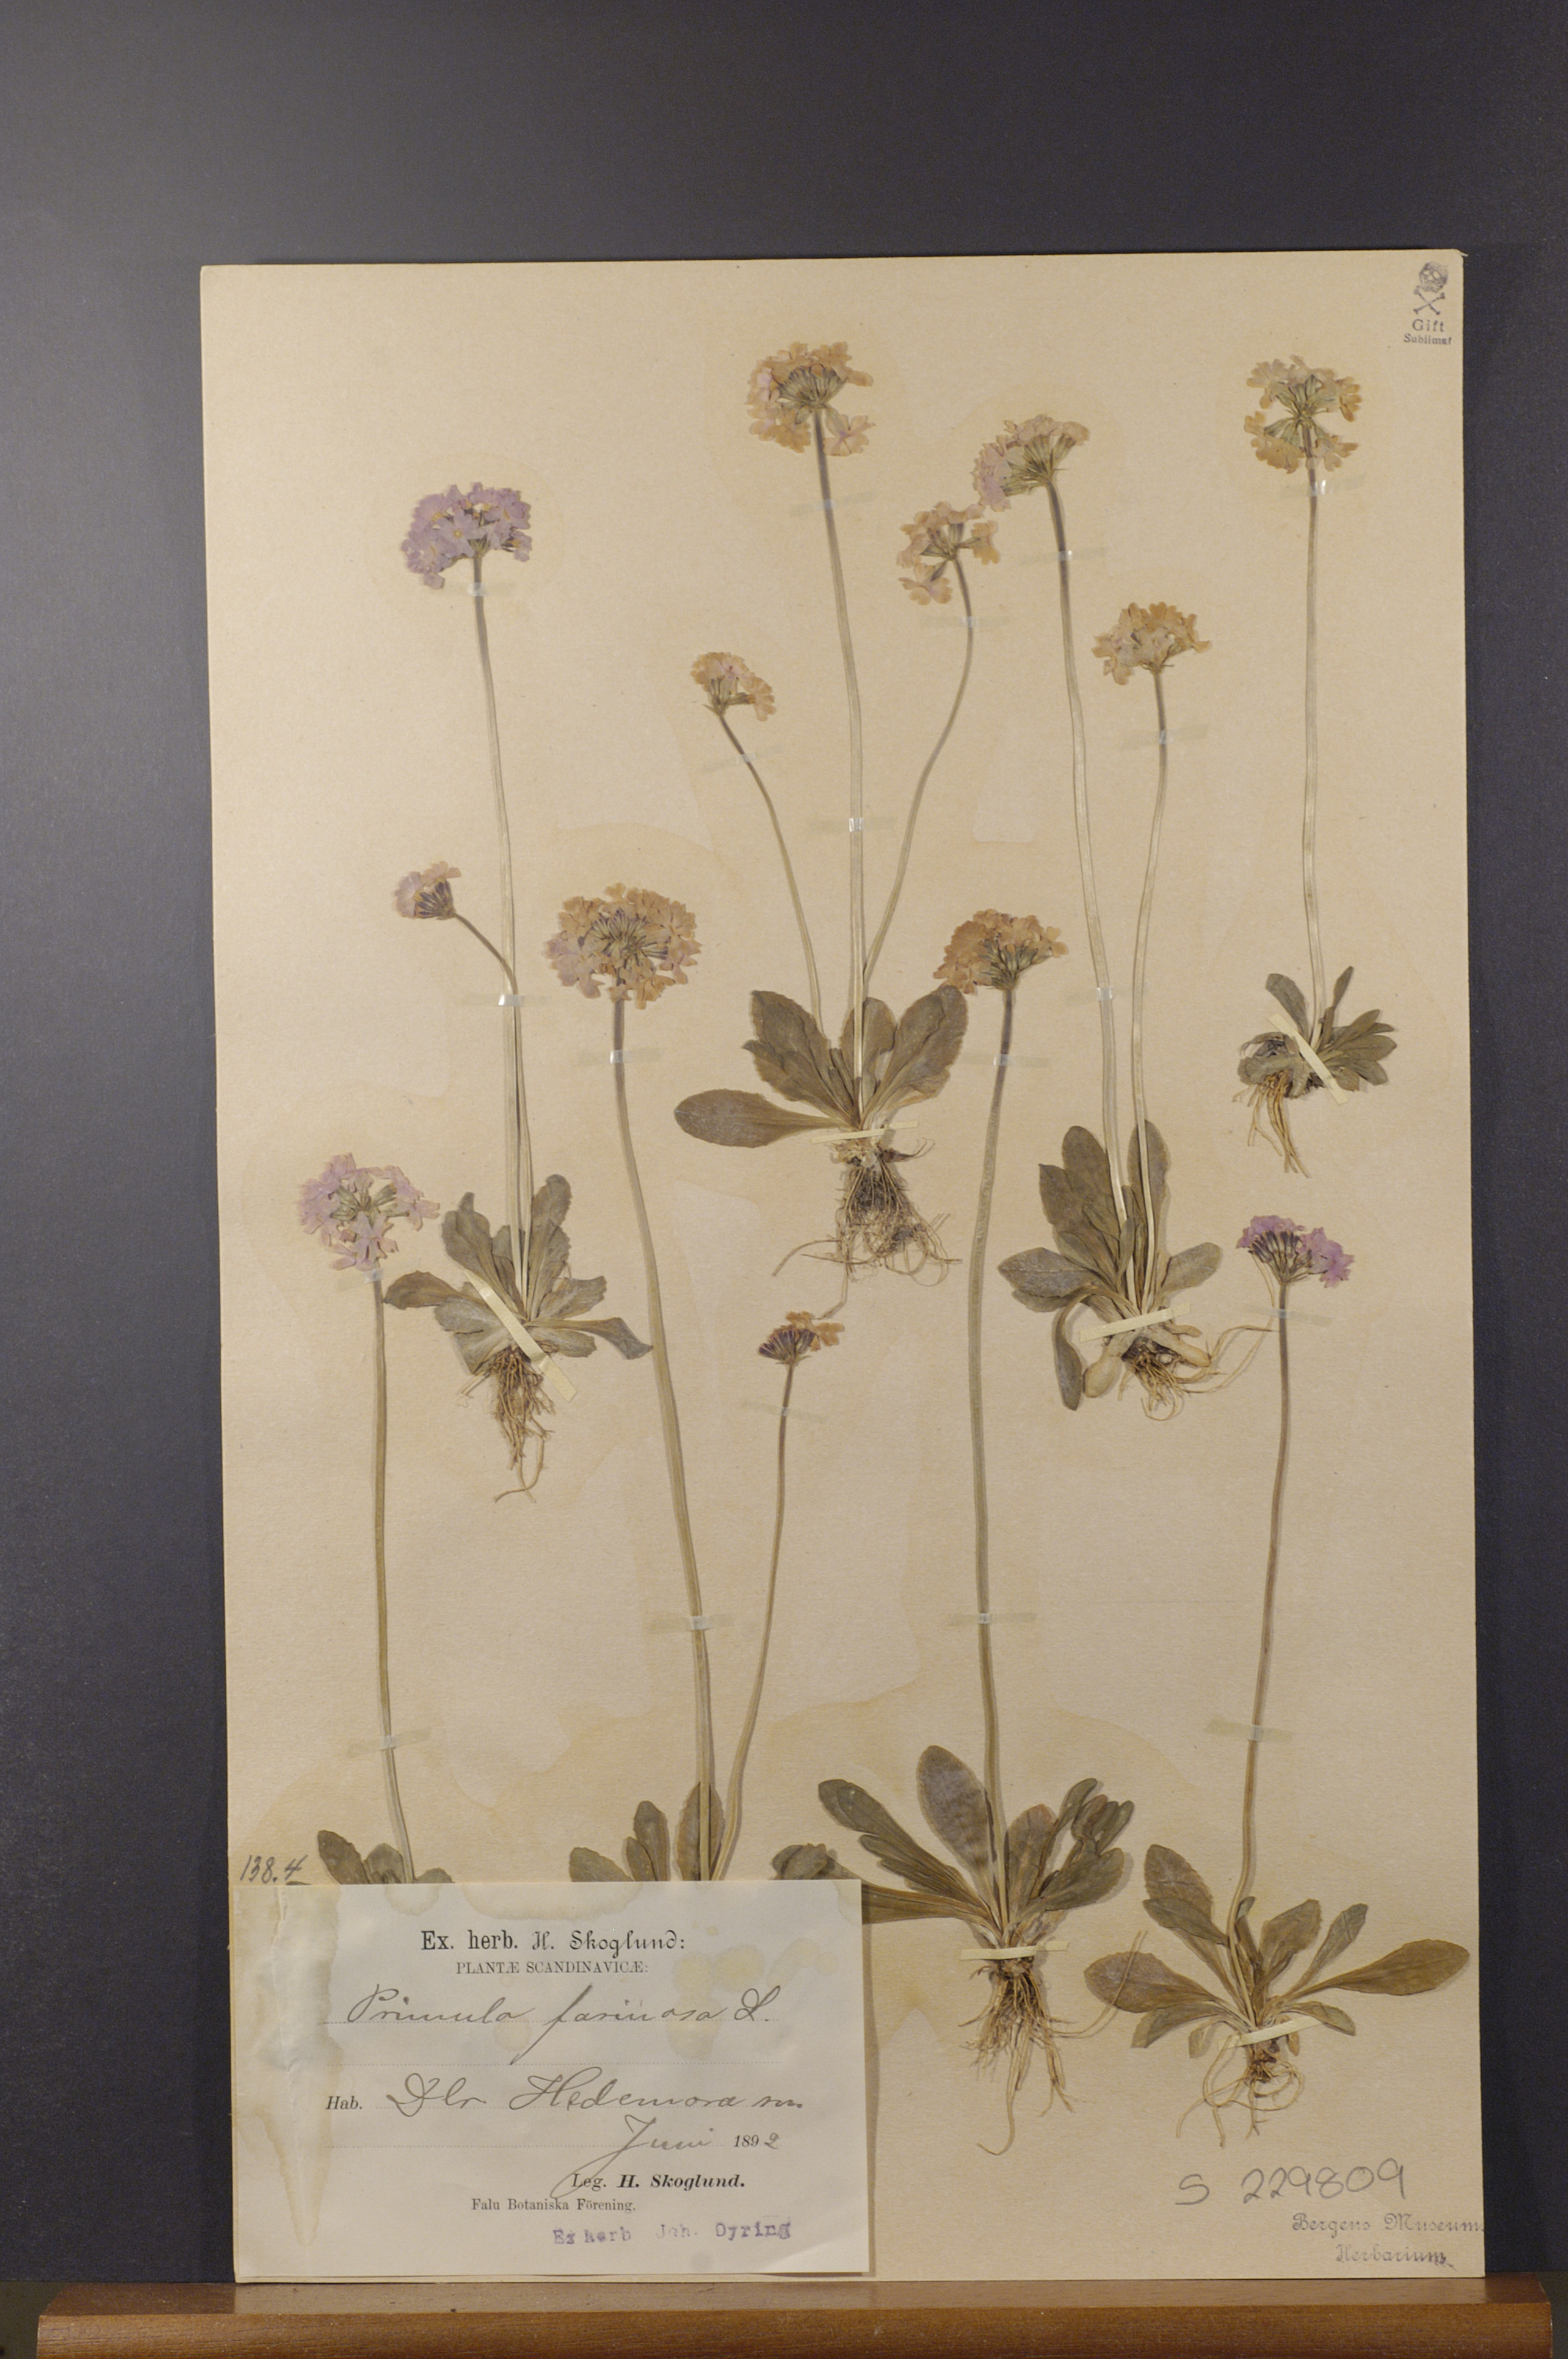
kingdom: Plantae
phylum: Tracheophyta
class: Magnoliopsida
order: Ericales
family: Primulaceae
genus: Primula
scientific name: Primula farinosa
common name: Bird's-eye primrose
